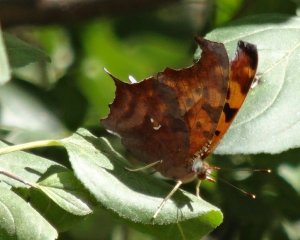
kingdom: Animalia
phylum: Arthropoda
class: Insecta
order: Lepidoptera
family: Nymphalidae
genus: Polygonia
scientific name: Polygonia interrogationis
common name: Question Mark
